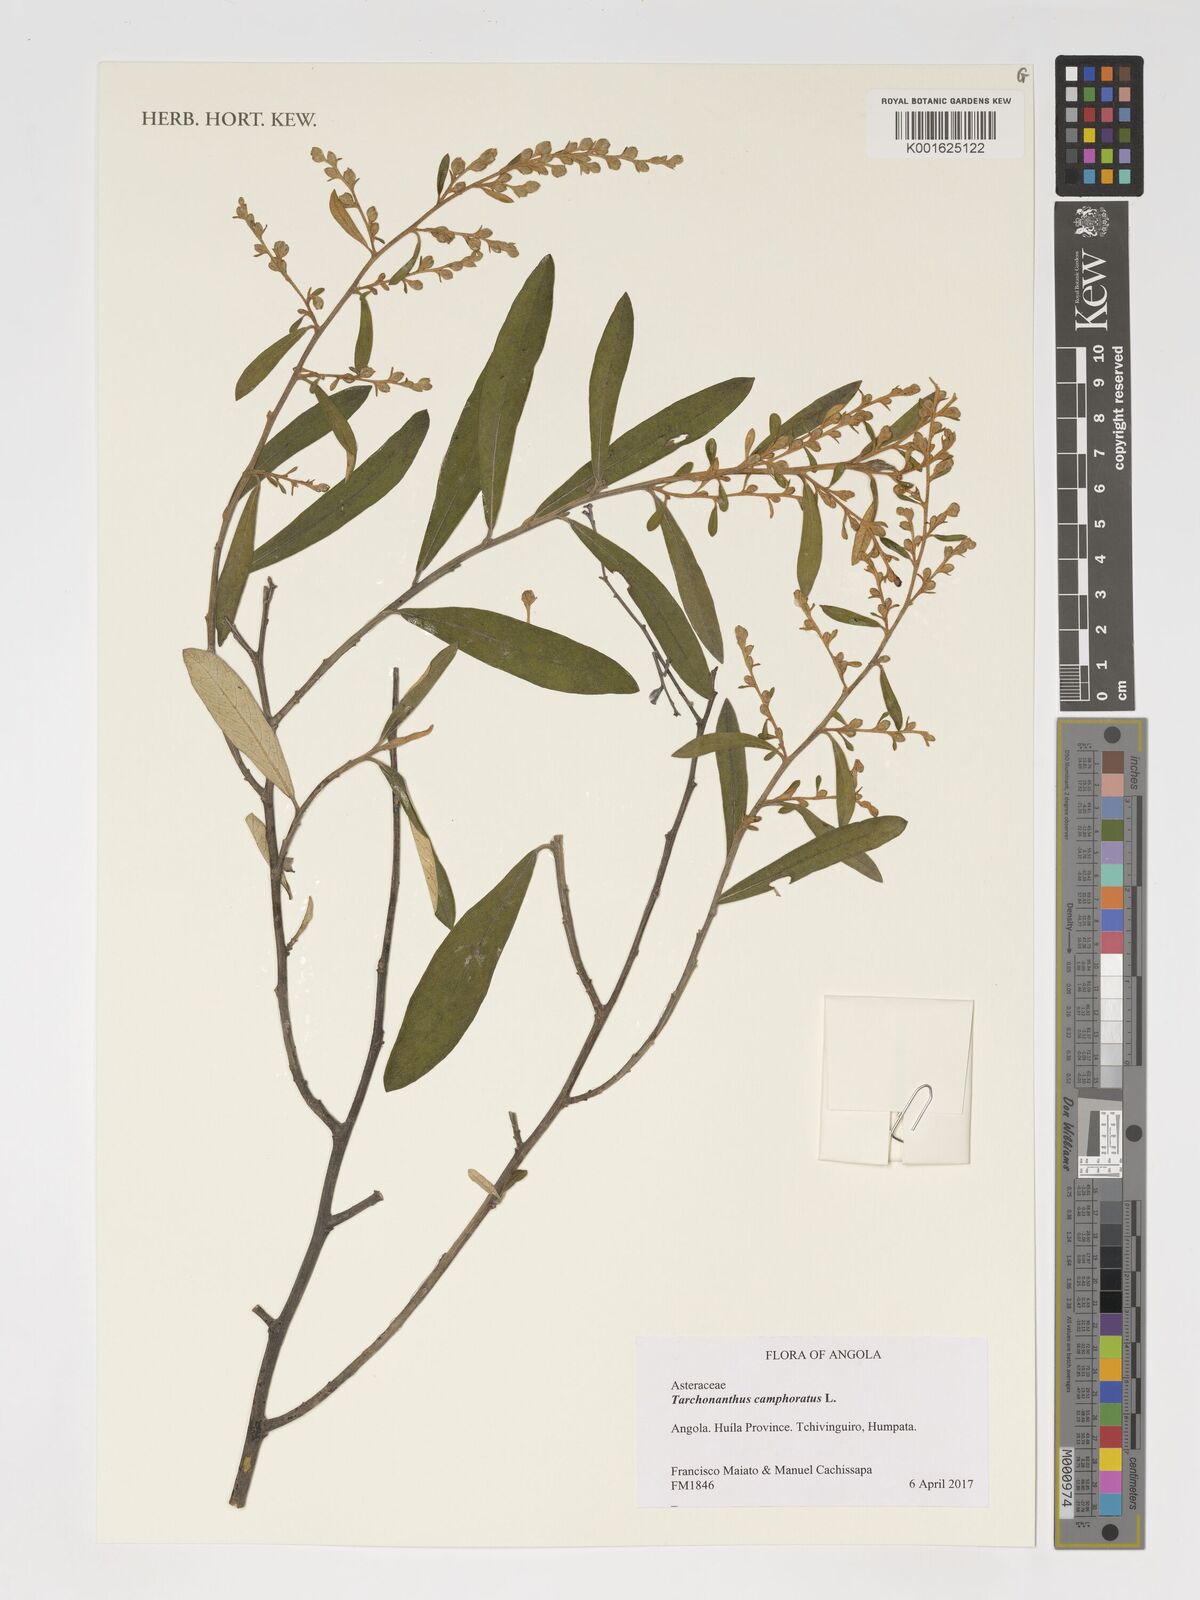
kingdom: Plantae
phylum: Tracheophyta
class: Magnoliopsida
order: Asterales
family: Asteraceae
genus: Tarchonanthus
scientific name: Tarchonanthus camphoratus
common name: Camphorwood
